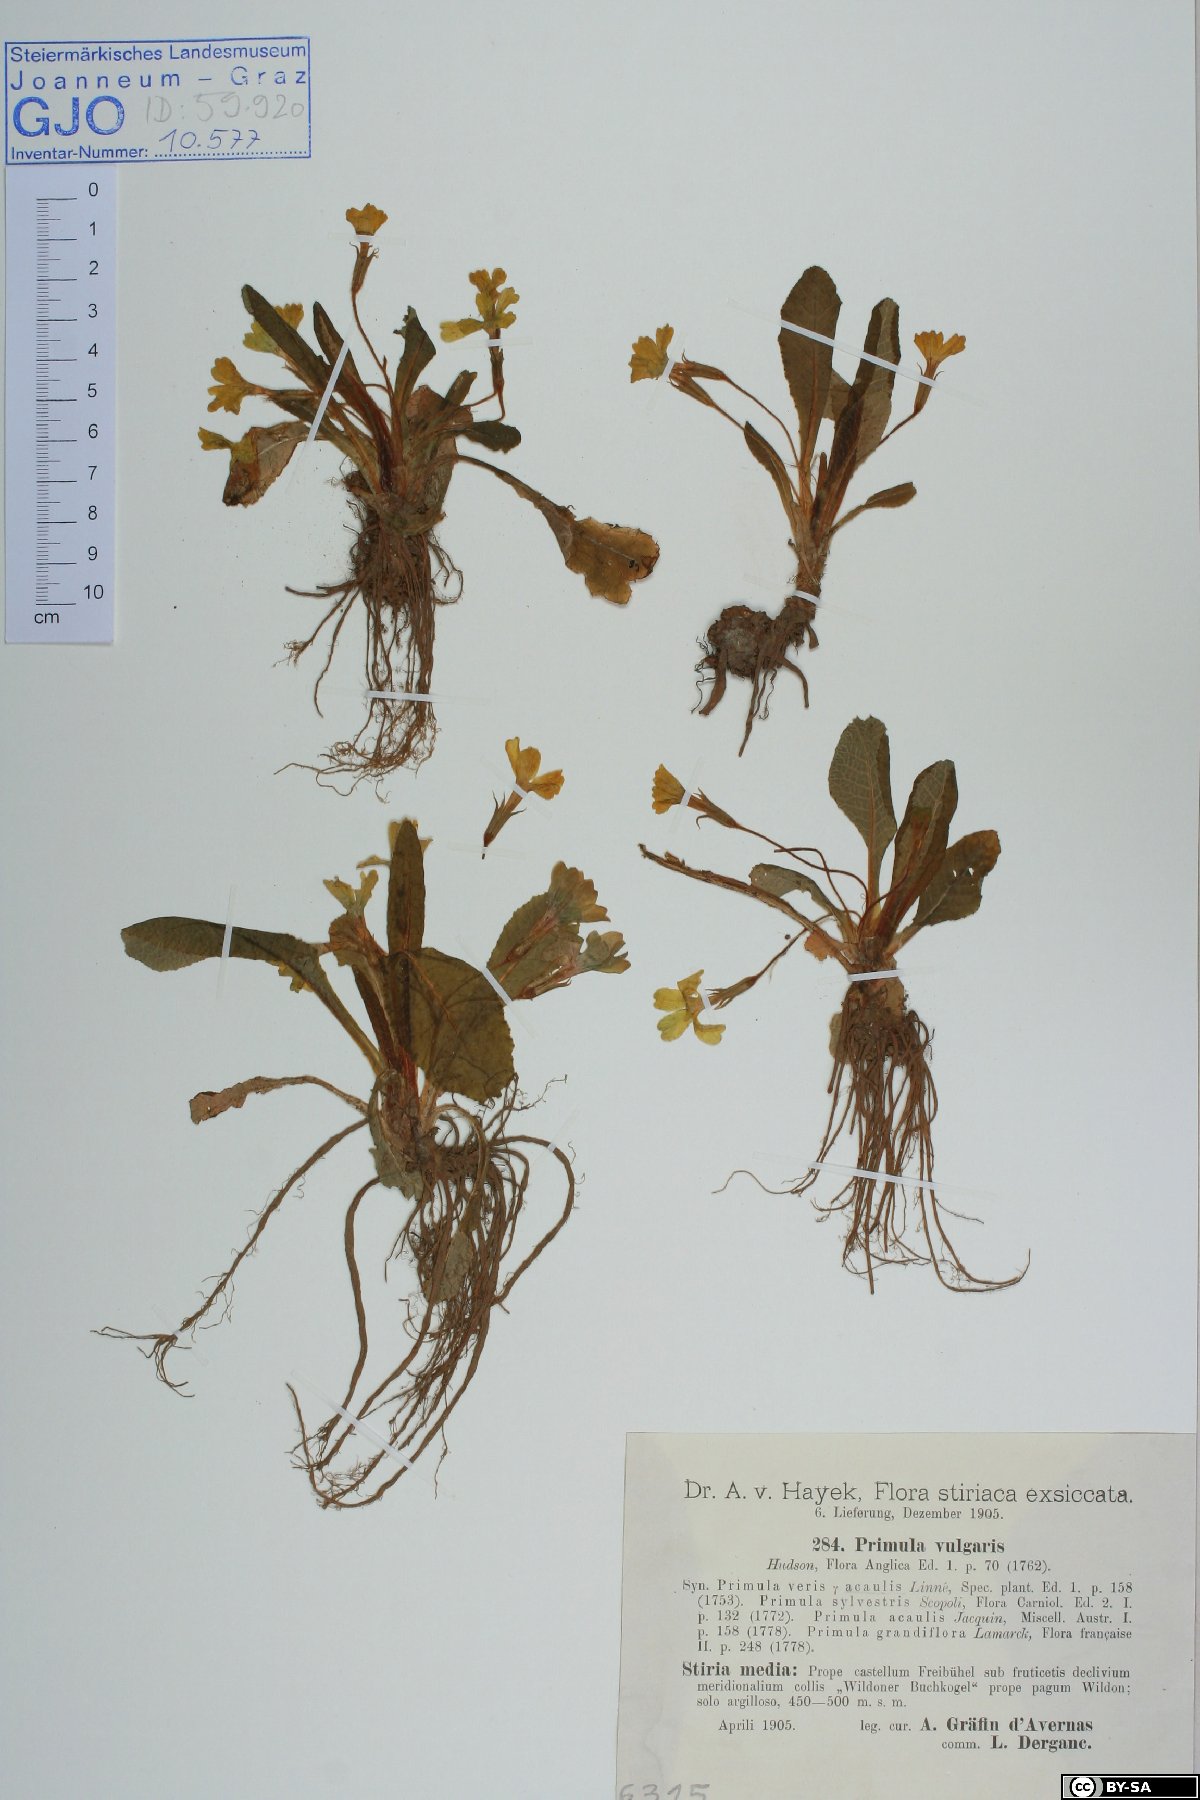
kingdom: Plantae
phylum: Tracheophyta
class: Magnoliopsida
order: Ericales
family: Primulaceae
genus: Primula
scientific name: Primula vulgaris
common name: Primrose
